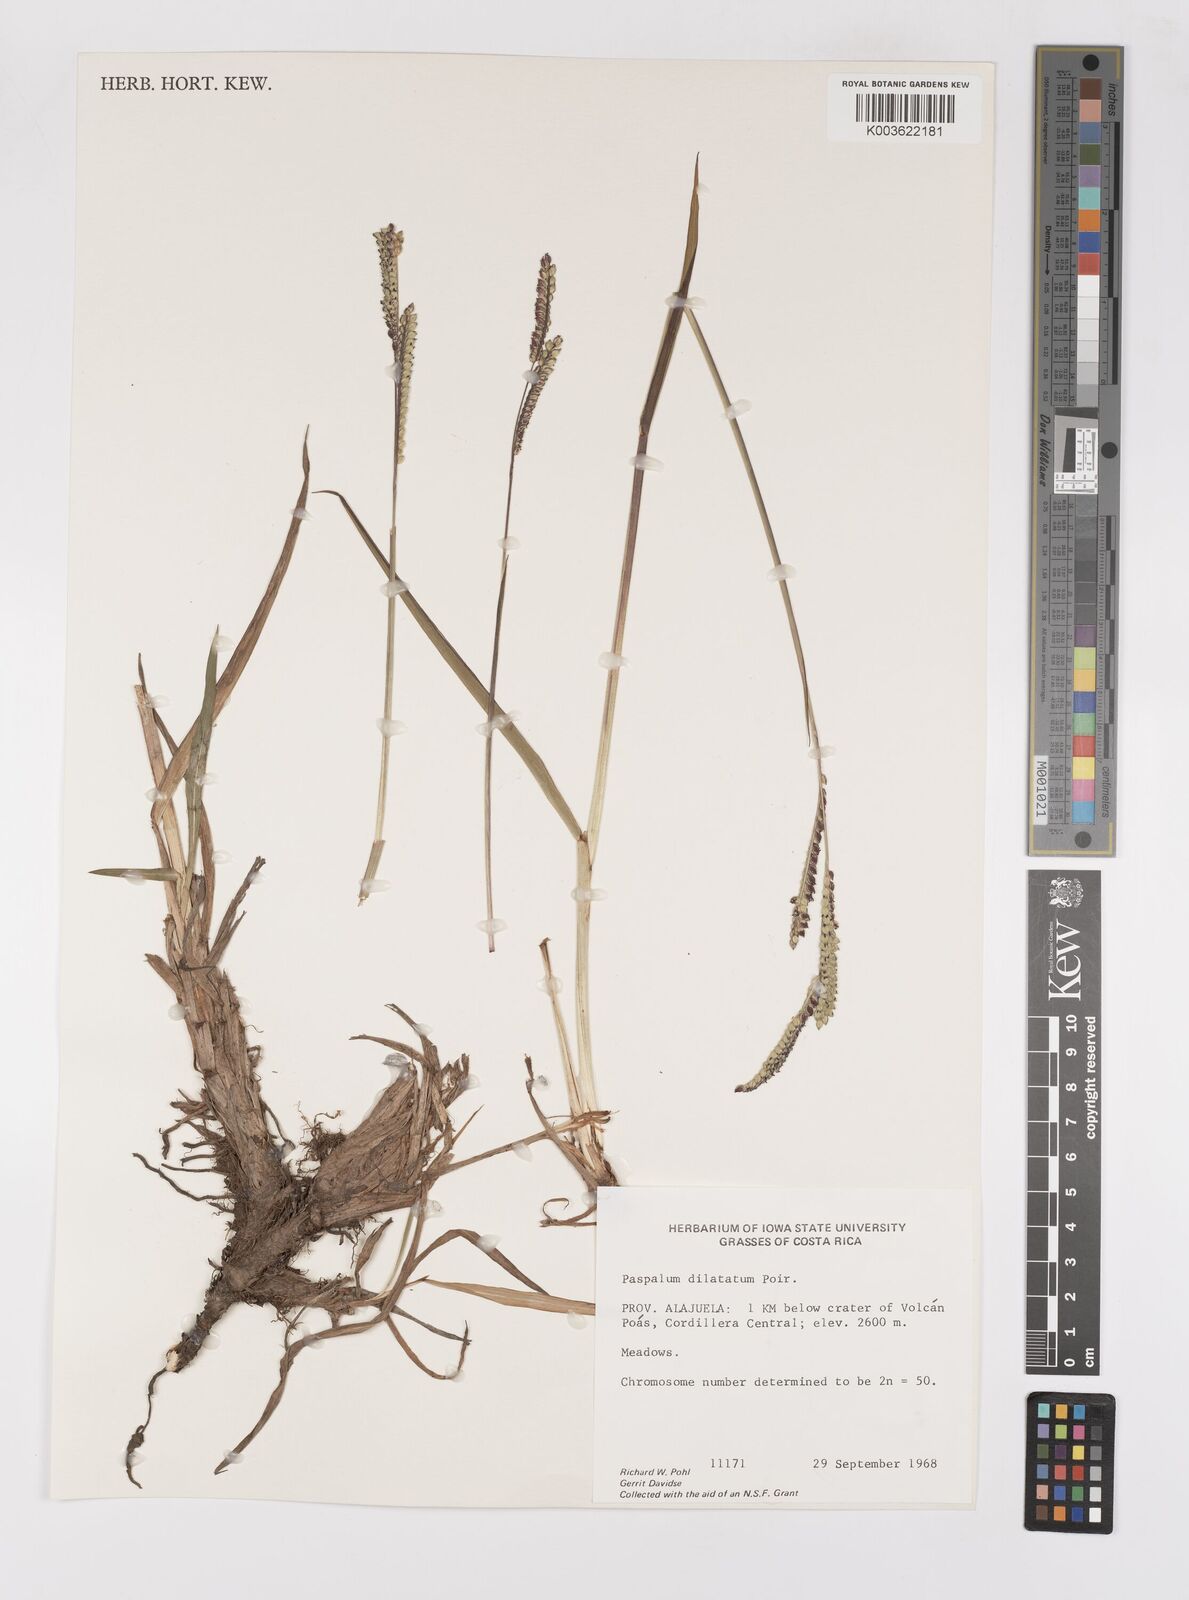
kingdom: Plantae
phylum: Tracheophyta
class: Liliopsida
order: Poales
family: Poaceae
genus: Paspalum
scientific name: Paspalum dilatatum
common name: Dallisgrass
